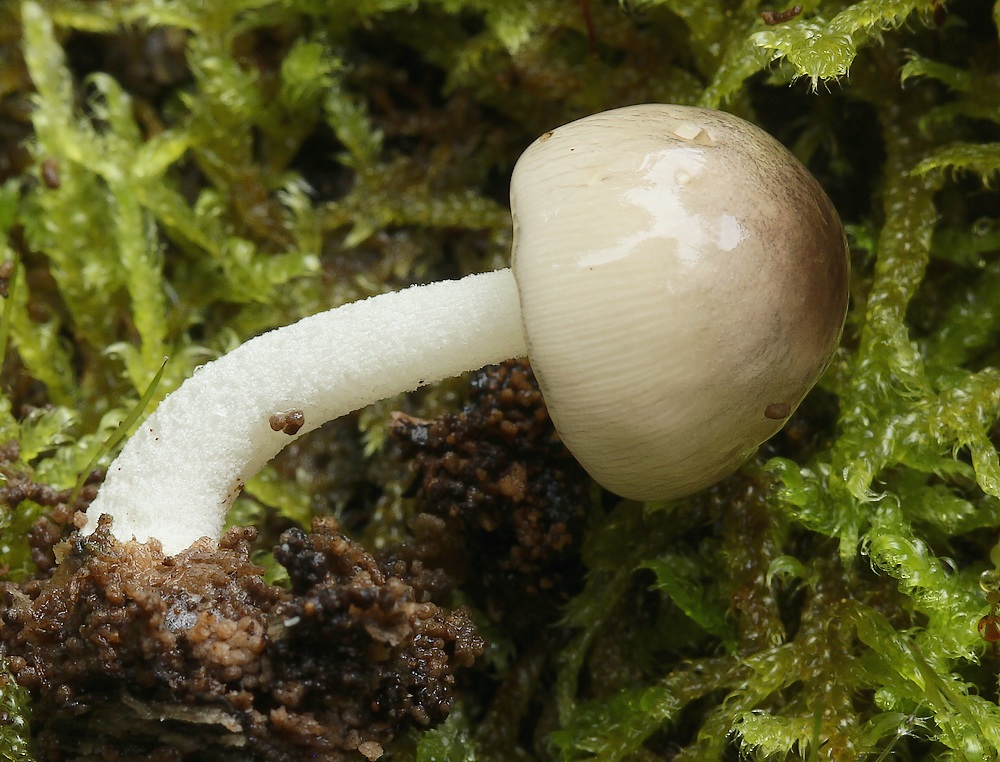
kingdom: Fungi
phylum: Basidiomycota
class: Agaricomycetes
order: Agaricales
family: Bolbitiaceae
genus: Bolbitius
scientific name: Bolbitius reticulatus
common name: Netted fieldcap
